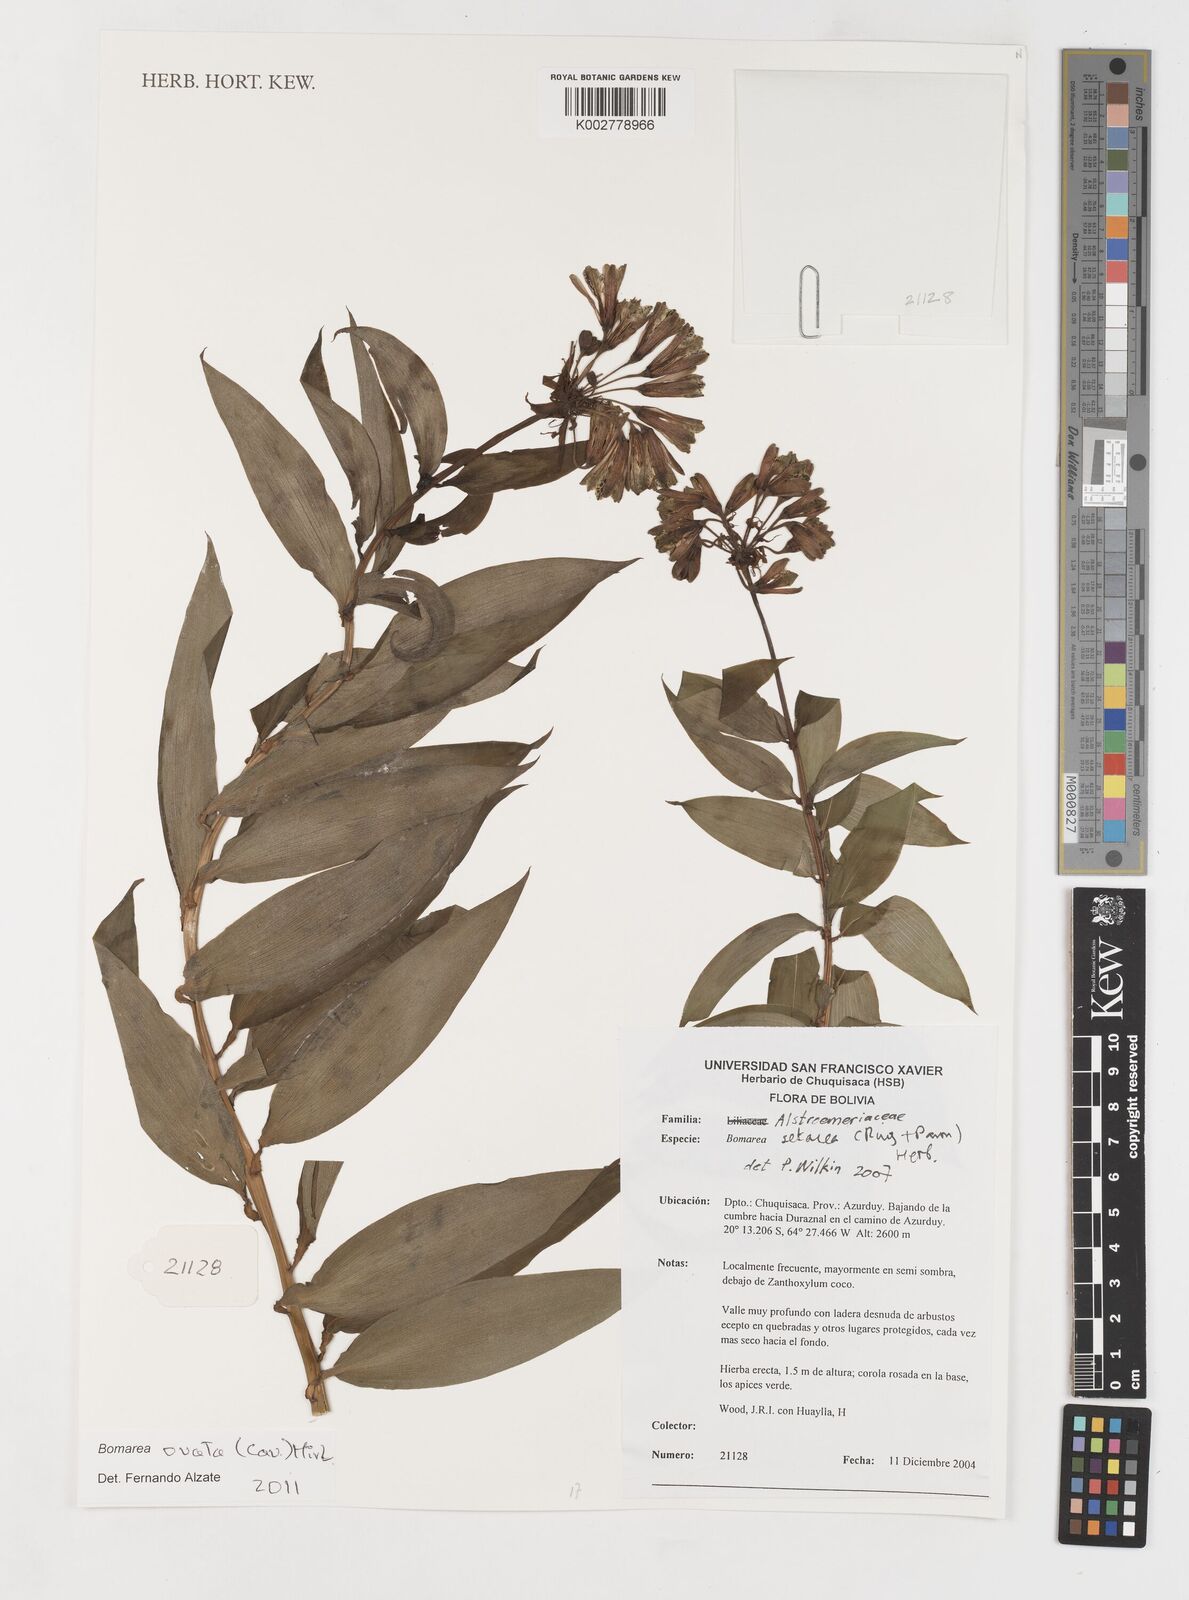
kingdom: Plantae
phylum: Tracheophyta
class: Liliopsida
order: Liliales
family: Alstroemeriaceae
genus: Bomarea
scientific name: Bomarea ovata
